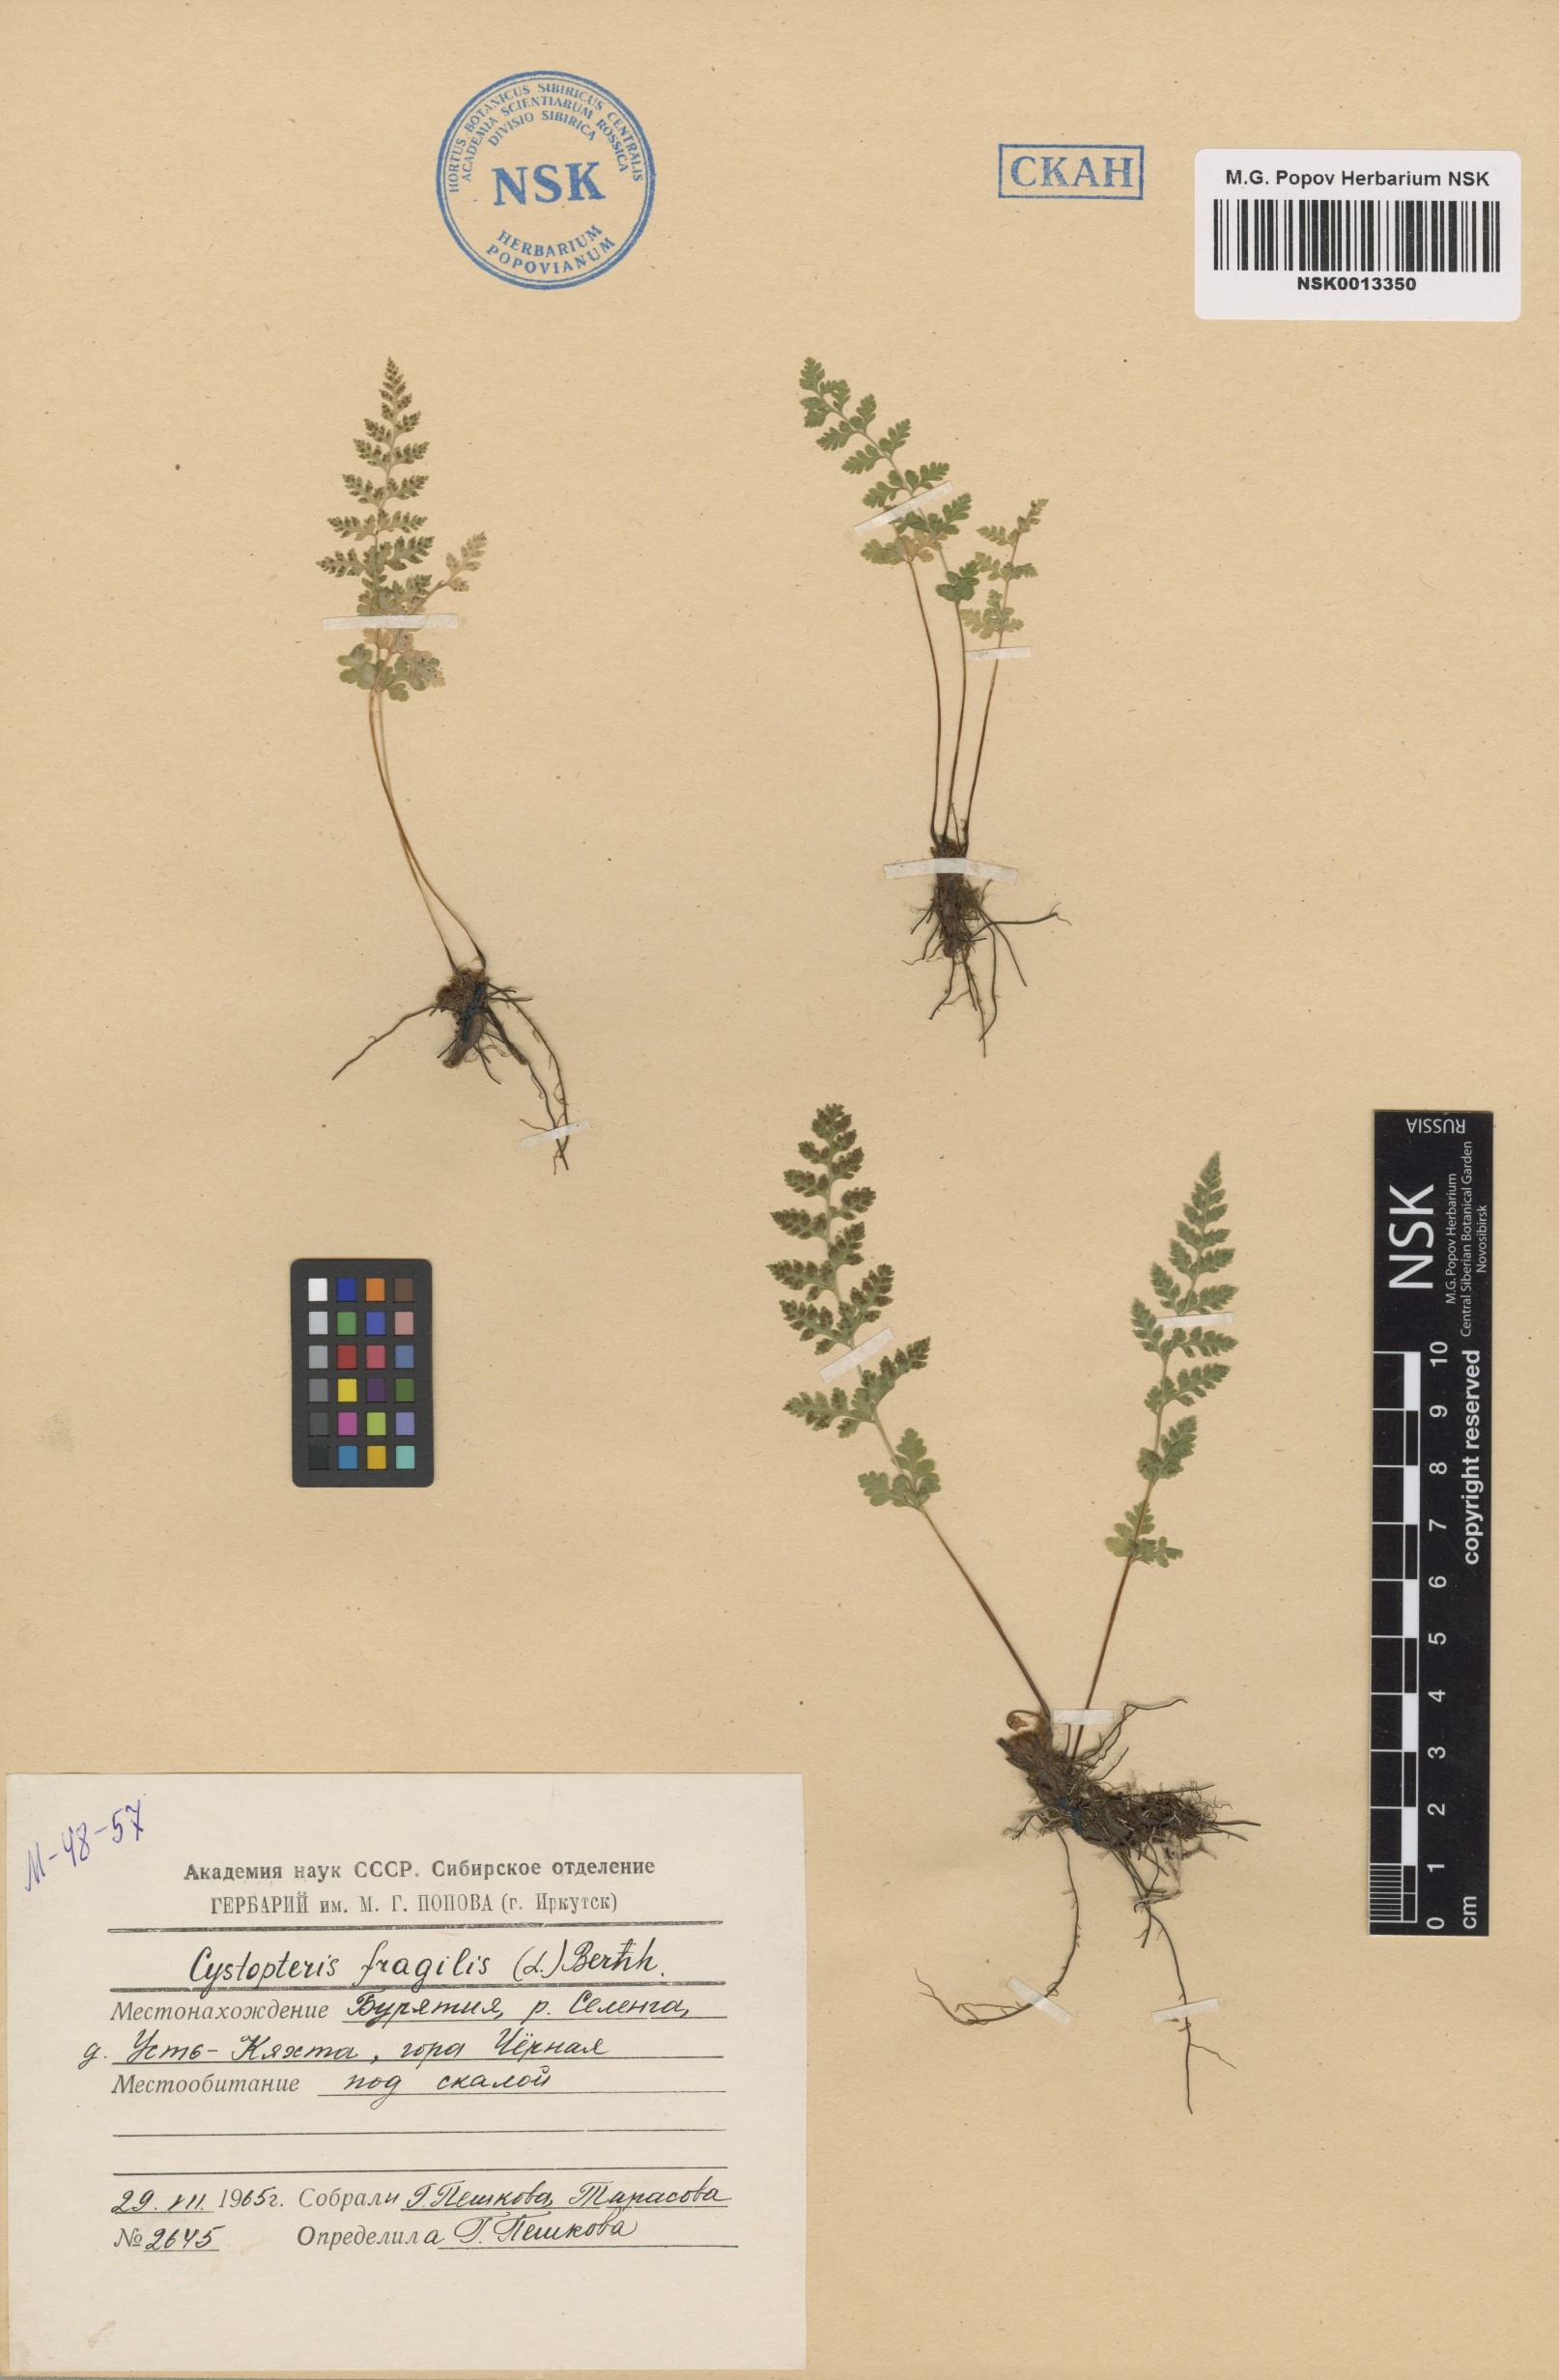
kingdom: Plantae
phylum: Tracheophyta
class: Polypodiopsida
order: Polypodiales
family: Cystopteridaceae
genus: Cystopteris
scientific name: Cystopteris fragilis
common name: Brittle bladder fern
